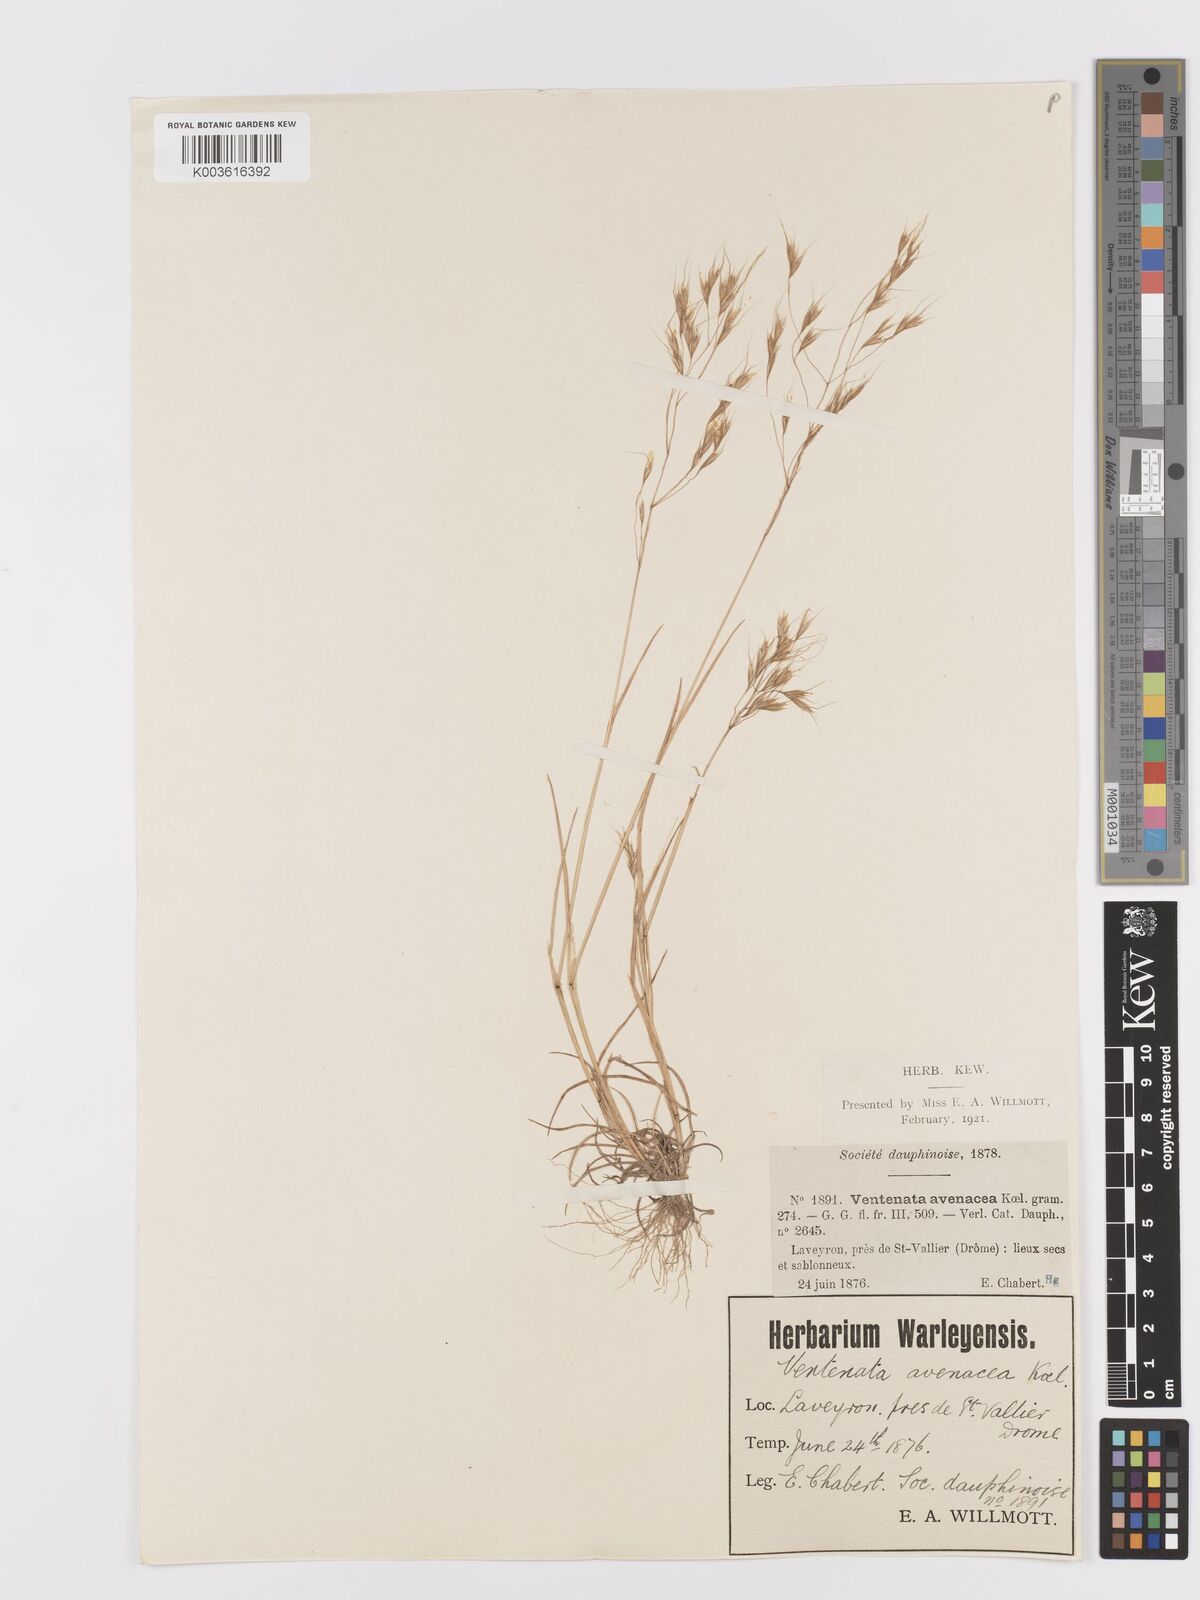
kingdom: Plantae
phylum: Tracheophyta
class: Liliopsida
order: Poales
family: Poaceae
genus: Ventenata
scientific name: Ventenata dubia
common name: North africa grass
